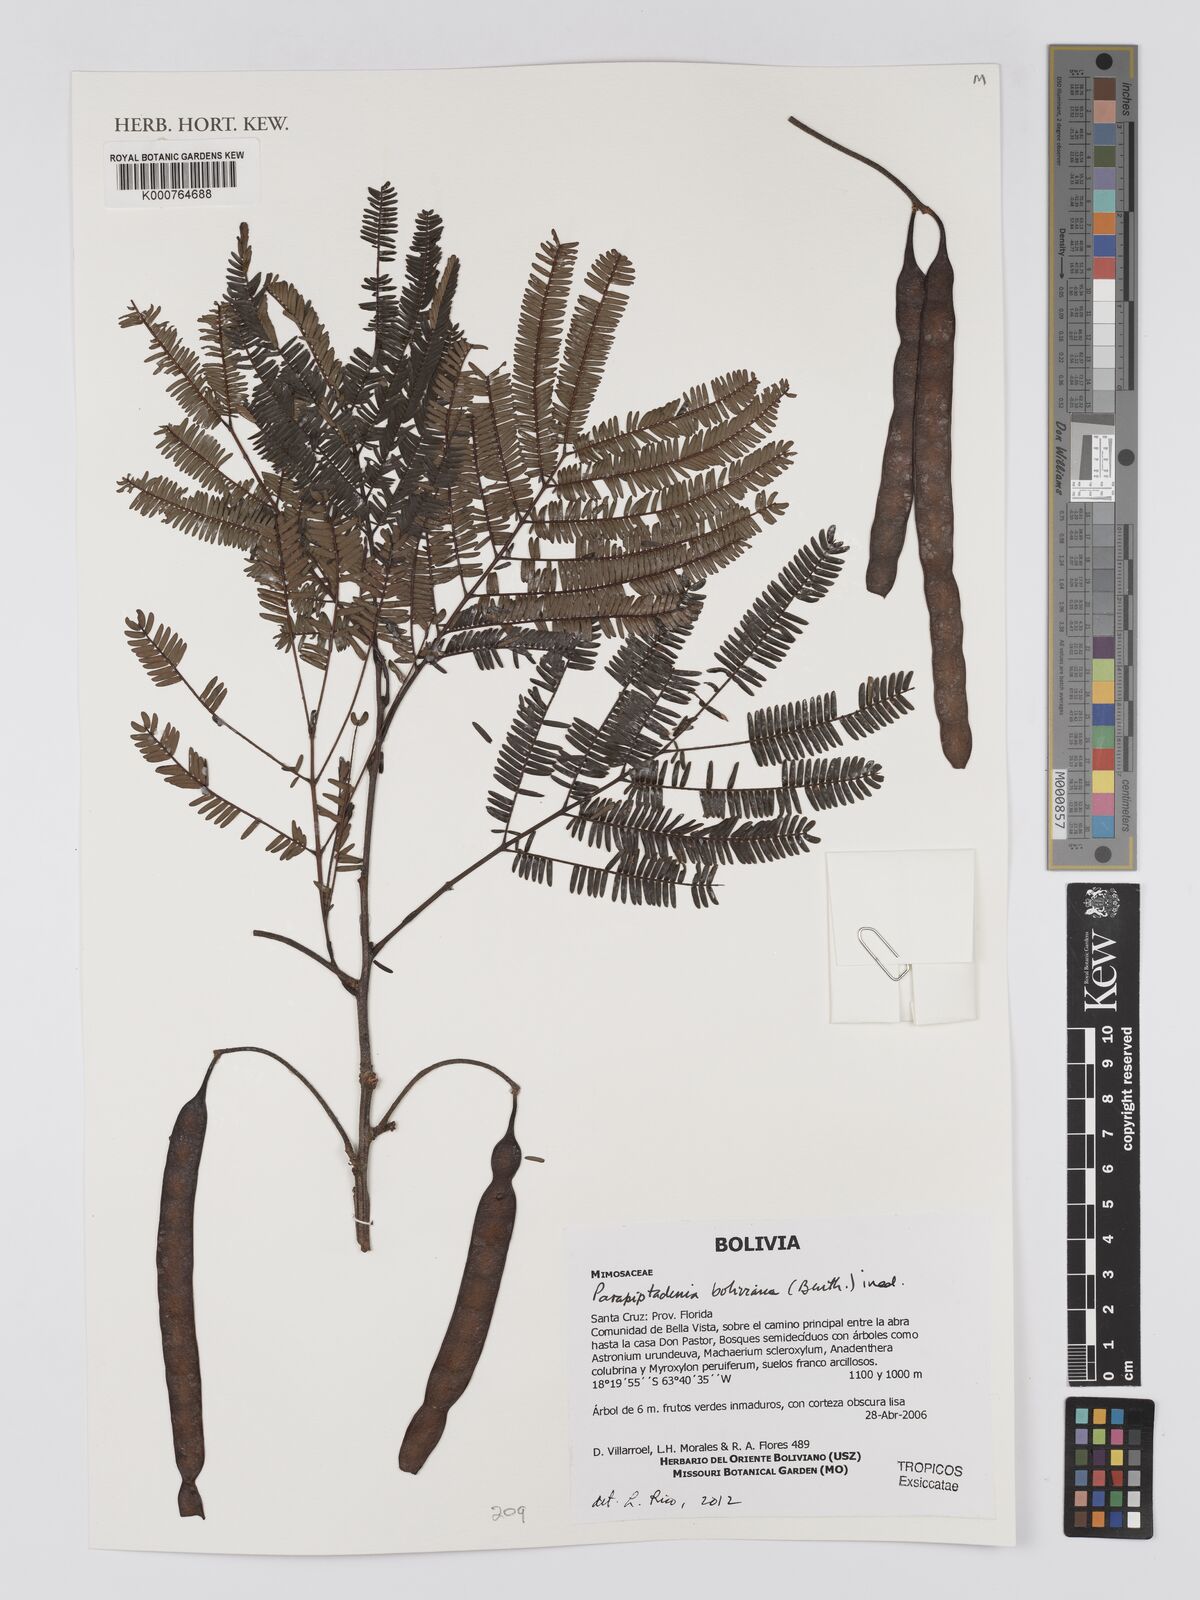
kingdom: Plantae
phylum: Tracheophyta
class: Magnoliopsida
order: Fabales
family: Fabaceae
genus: Parapiptadenia
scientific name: Parapiptadenia
